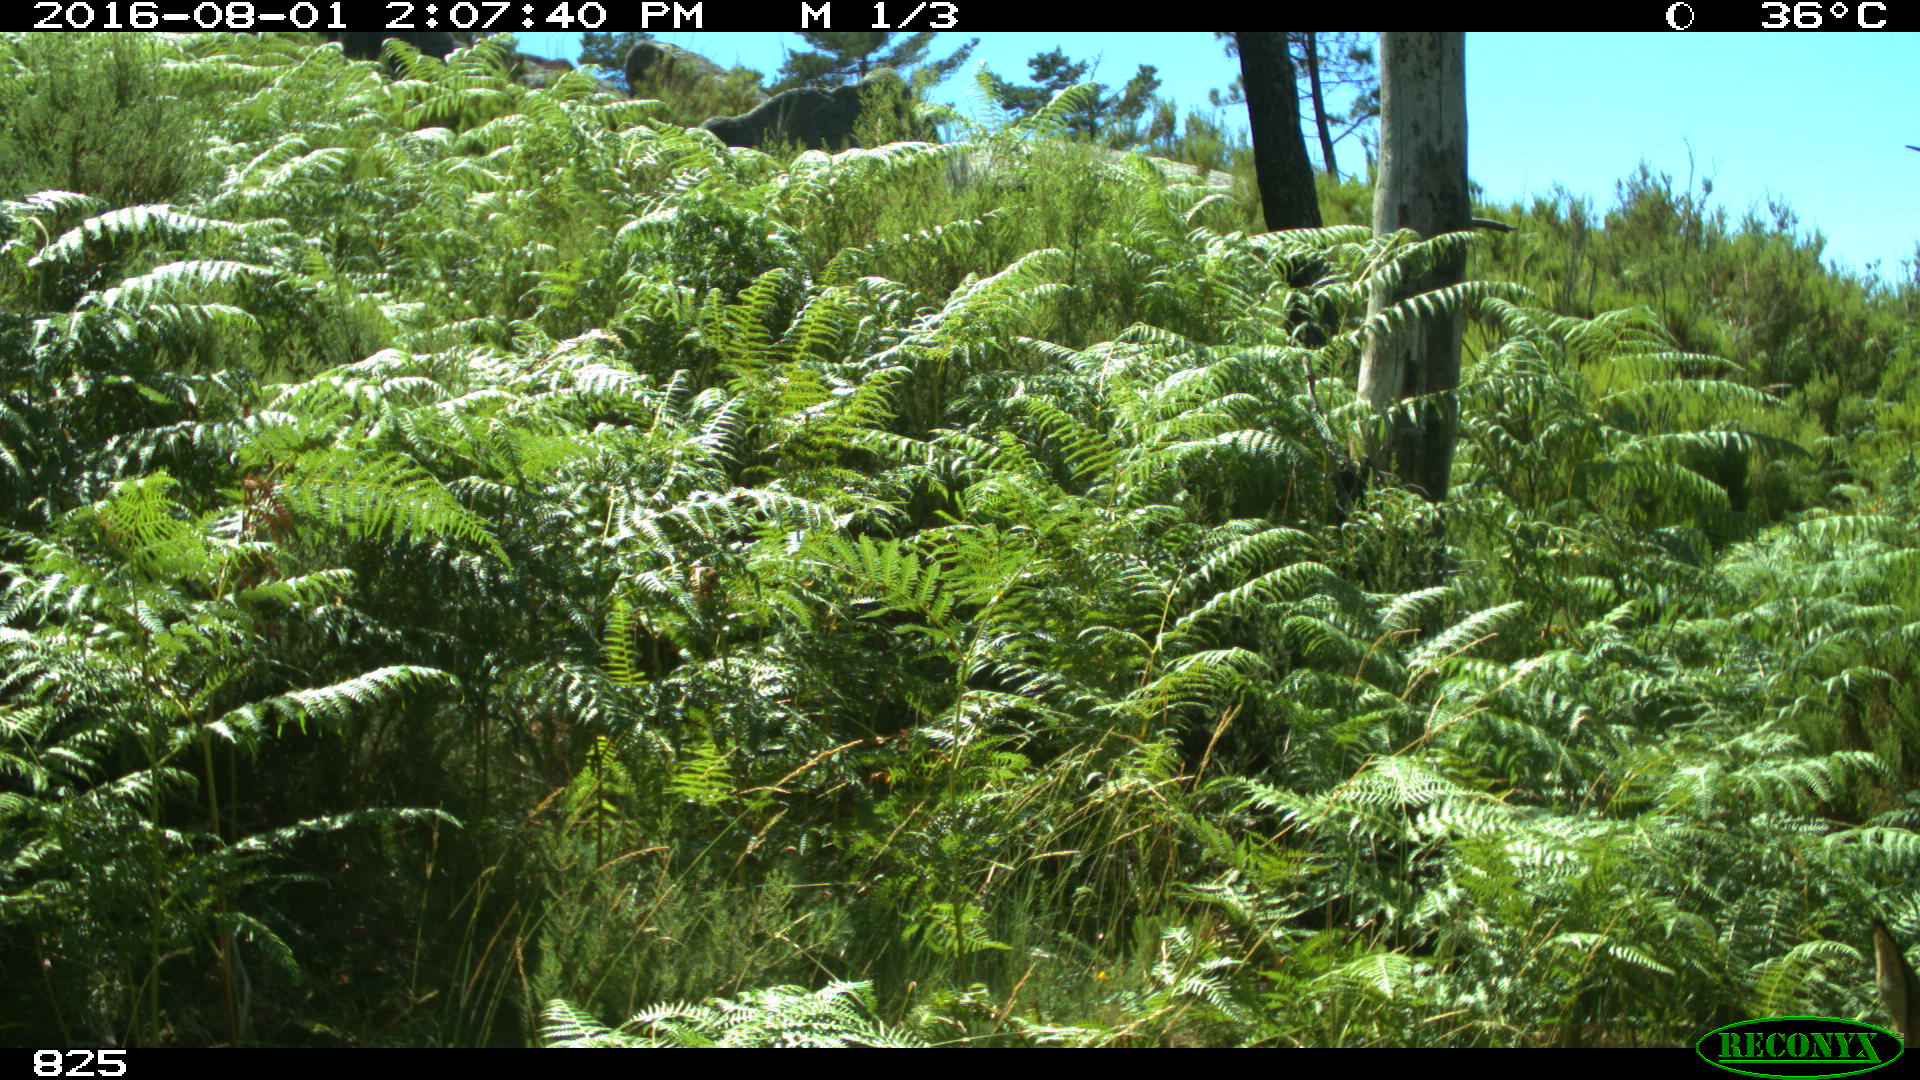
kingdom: Animalia
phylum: Chordata
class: Mammalia
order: Artiodactyla
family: Cervidae
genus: Capreolus
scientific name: Capreolus capreolus
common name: Western roe deer
